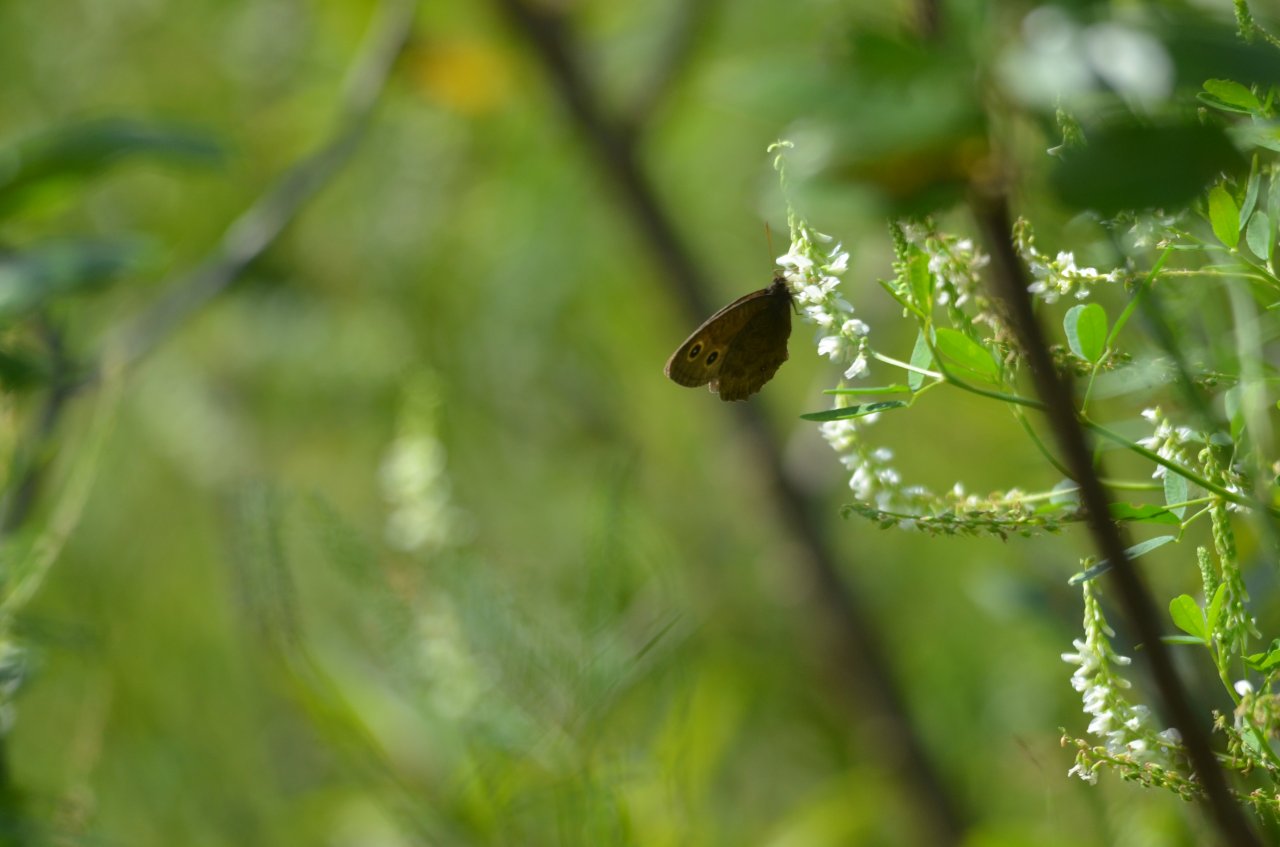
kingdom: Animalia
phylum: Arthropoda
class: Insecta
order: Lepidoptera
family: Nymphalidae
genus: Cercyonis
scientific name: Cercyonis pegala
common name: Common Wood-Nymph
